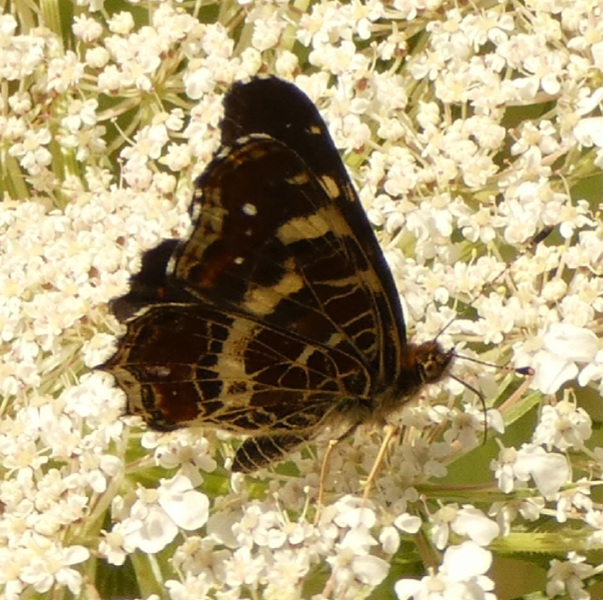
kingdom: Animalia
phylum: Arthropoda
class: Insecta
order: Lepidoptera
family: Nymphalidae
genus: Araschnia
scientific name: Araschnia levana
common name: Nældesommerfugl
